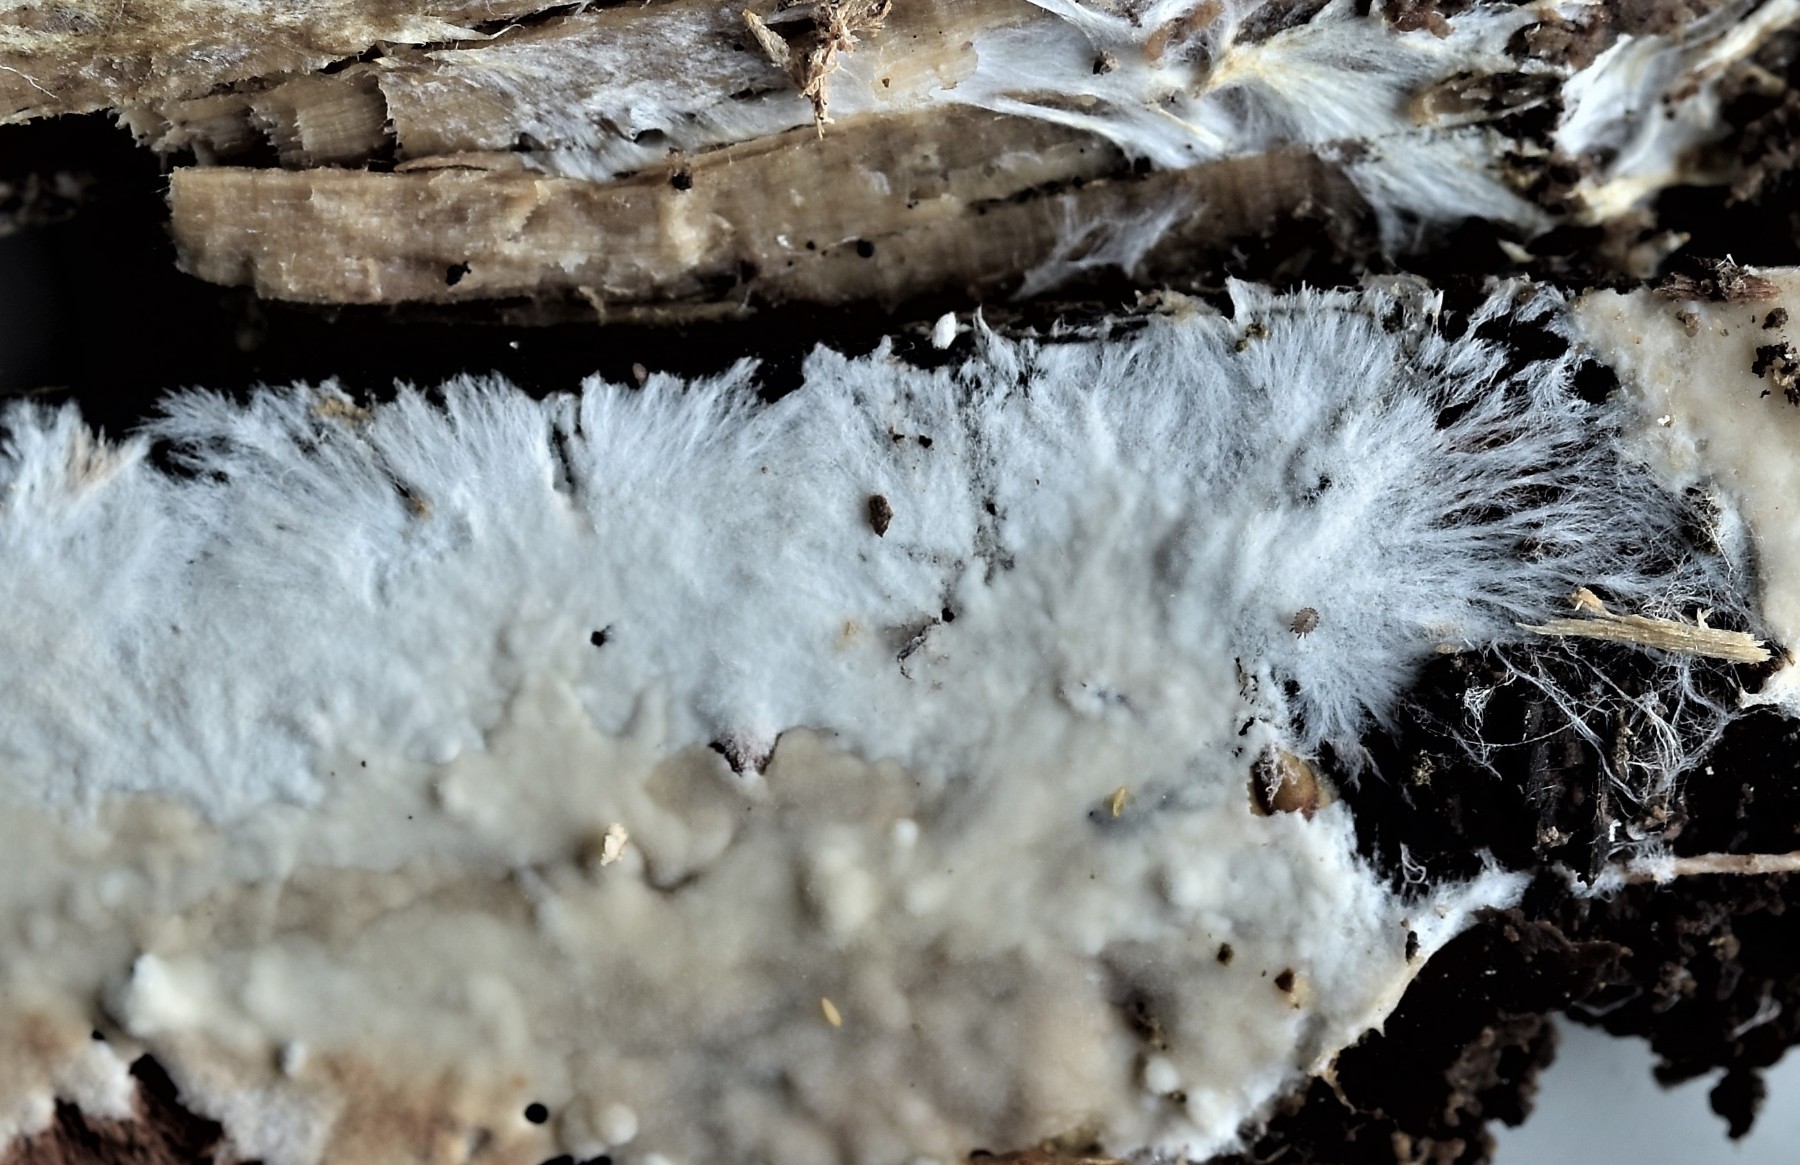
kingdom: Fungi
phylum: Basidiomycota
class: Agaricomycetes
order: Polyporales
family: Phanerochaetaceae
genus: Phanerochaete
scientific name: Phanerochaete velutina
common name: dunet randtråd
